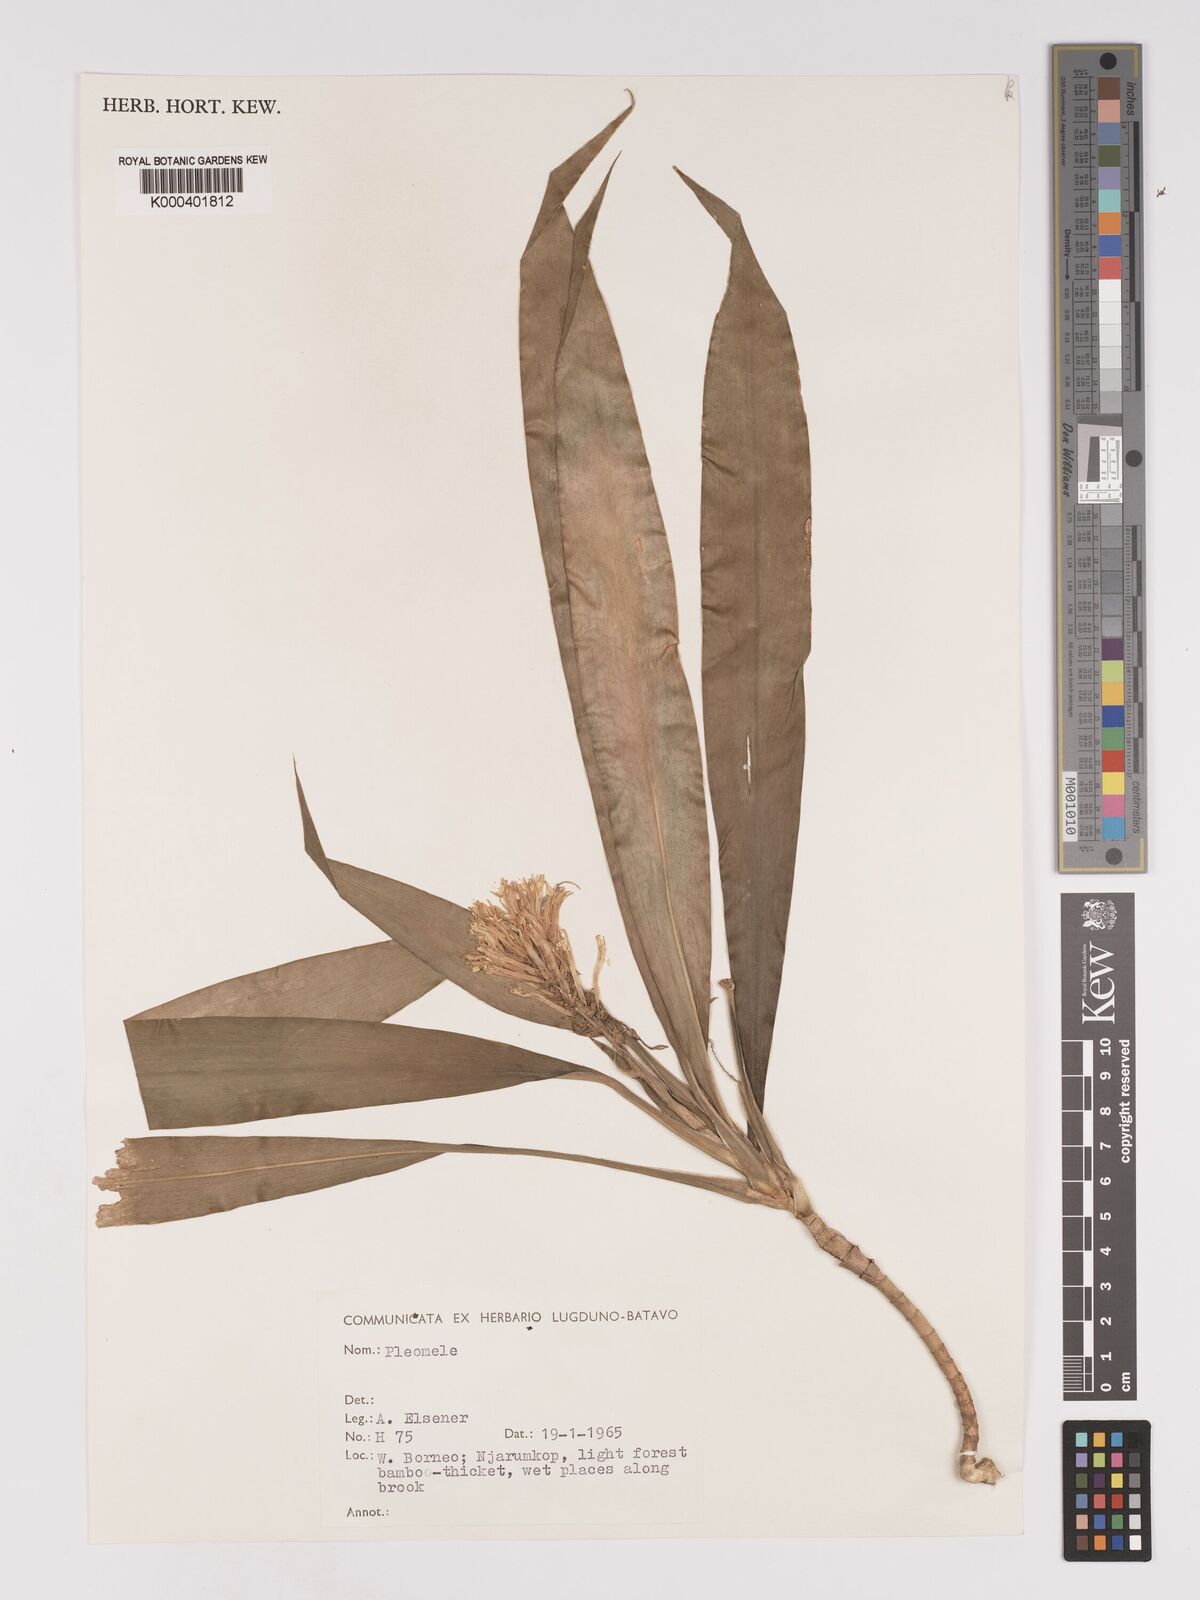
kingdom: Plantae
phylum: Tracheophyta
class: Liliopsida
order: Asparagales
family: Asparagaceae
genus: Dracaena
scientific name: Dracaena
